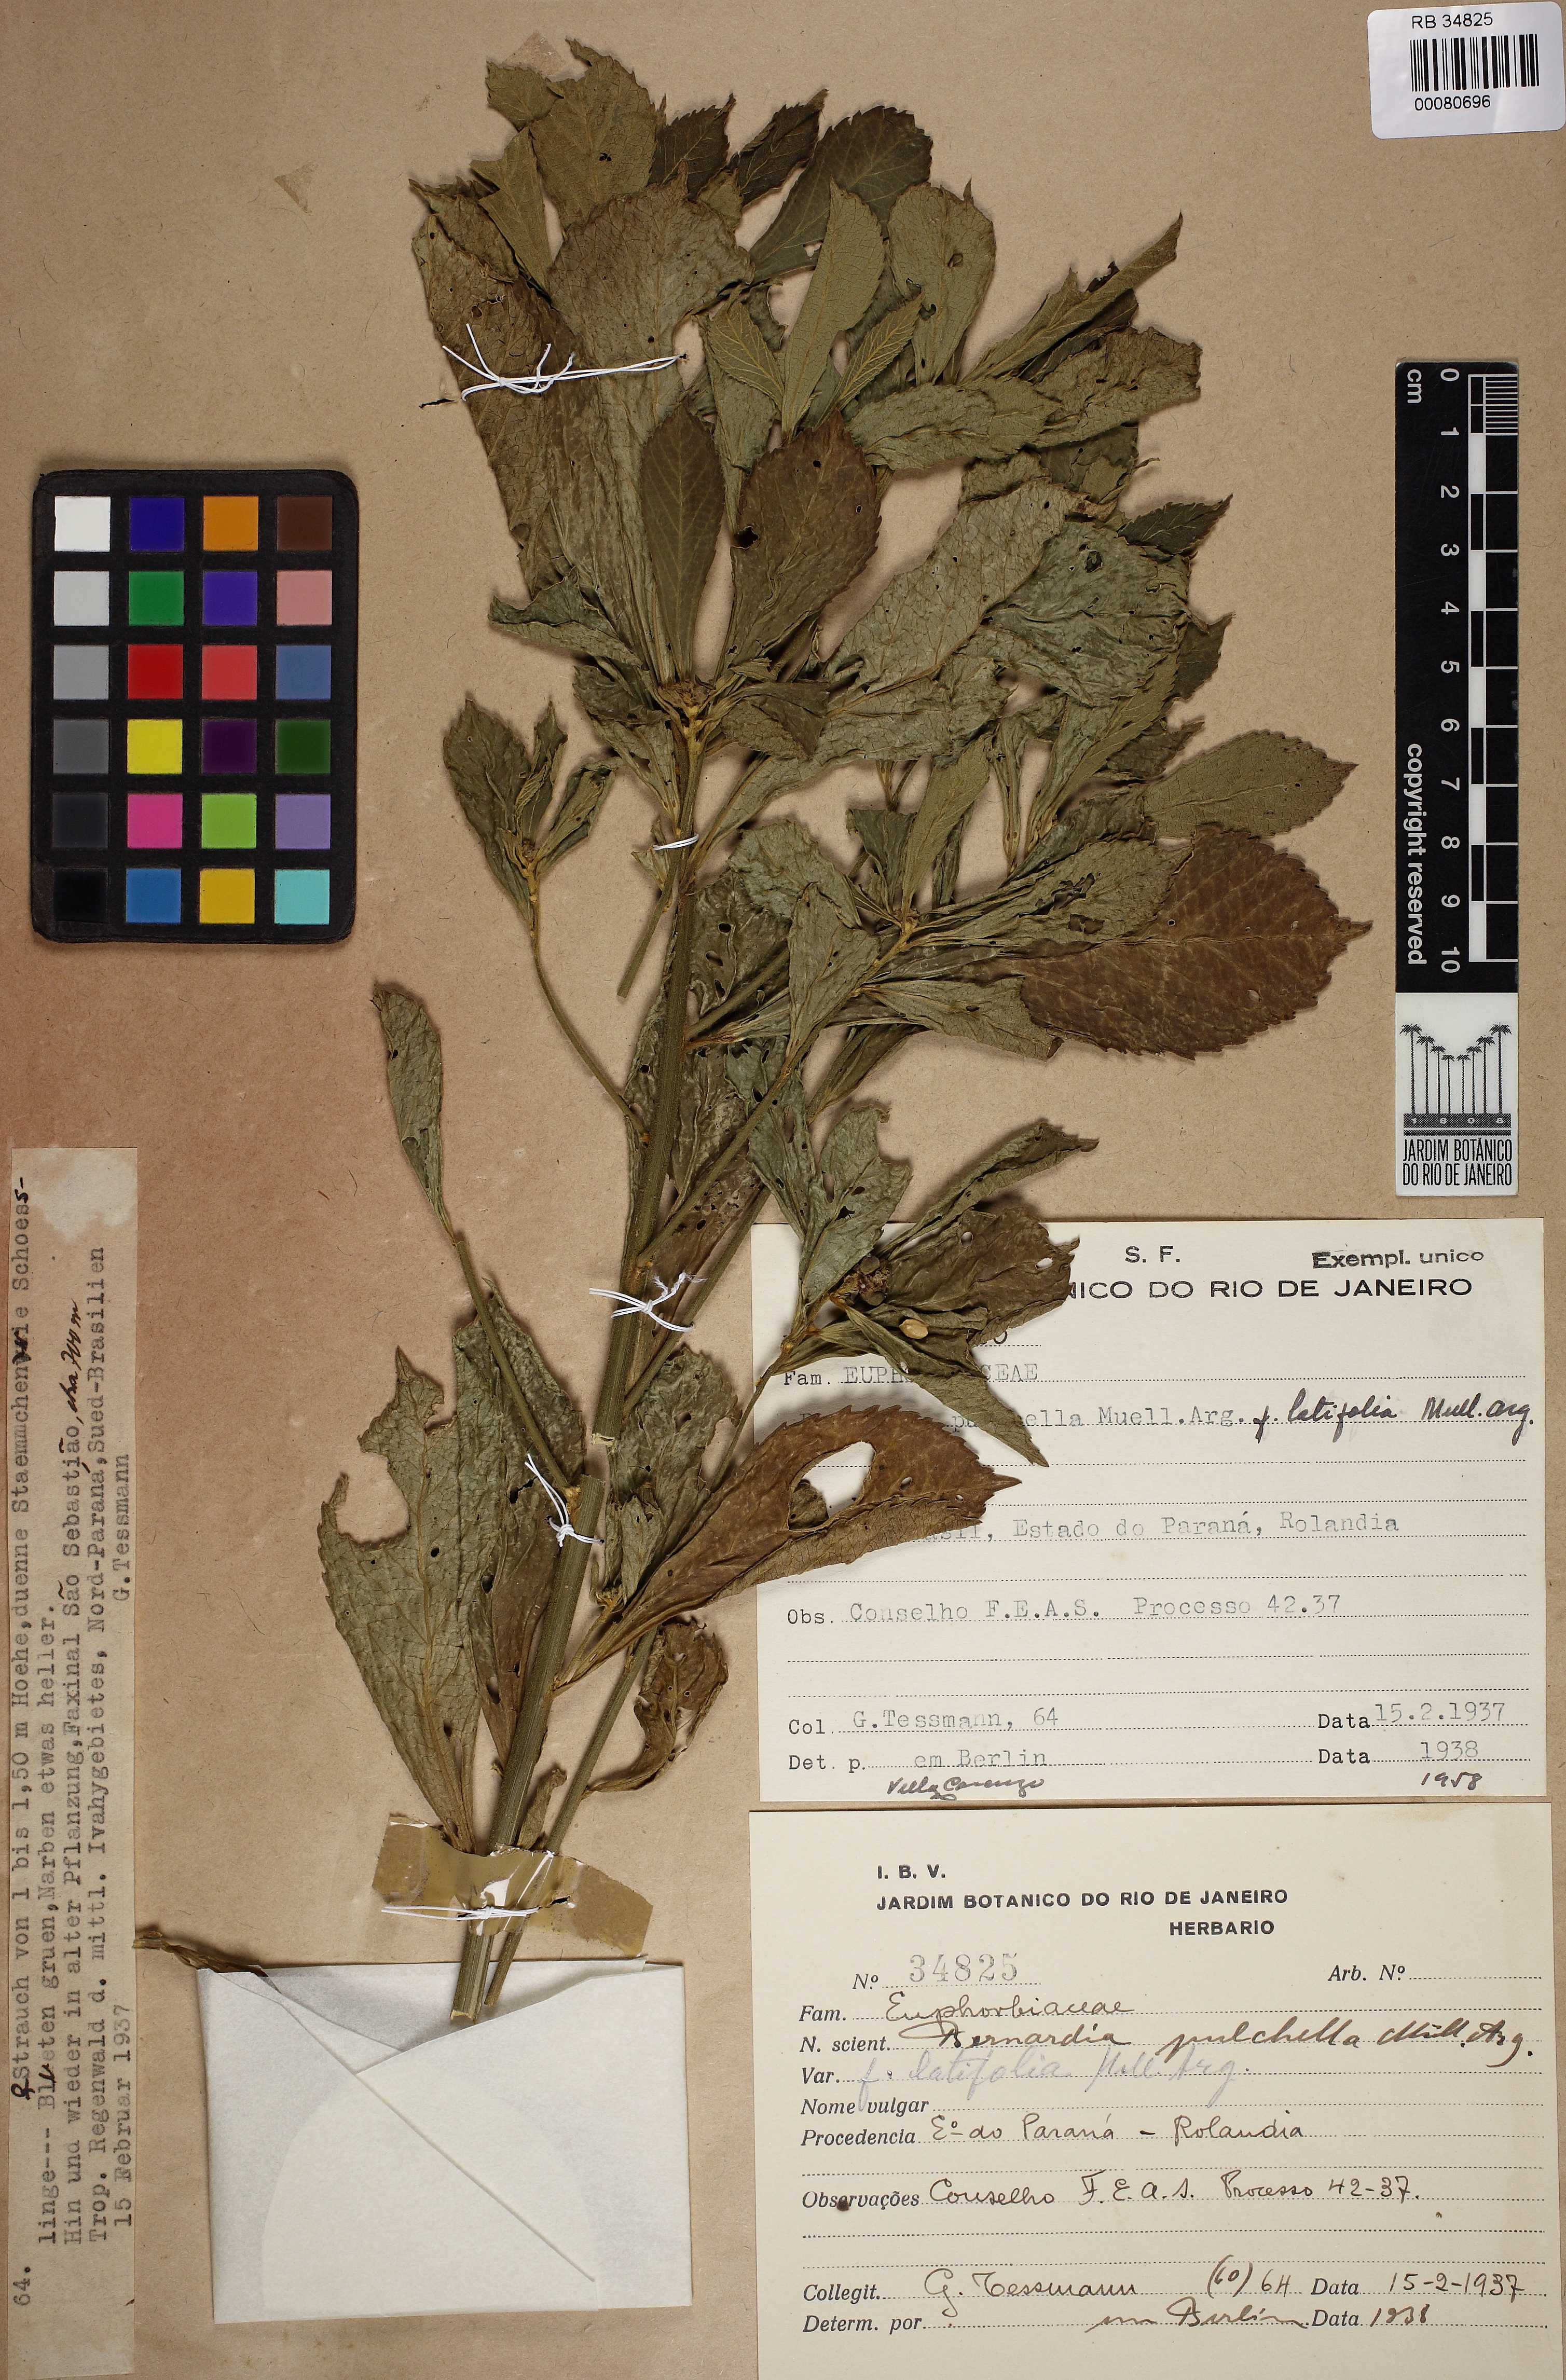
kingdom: Plantae
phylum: Tracheophyta
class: Magnoliopsida
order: Malpighiales
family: Euphorbiaceae
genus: Bernardia
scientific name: Bernardia pulchella
